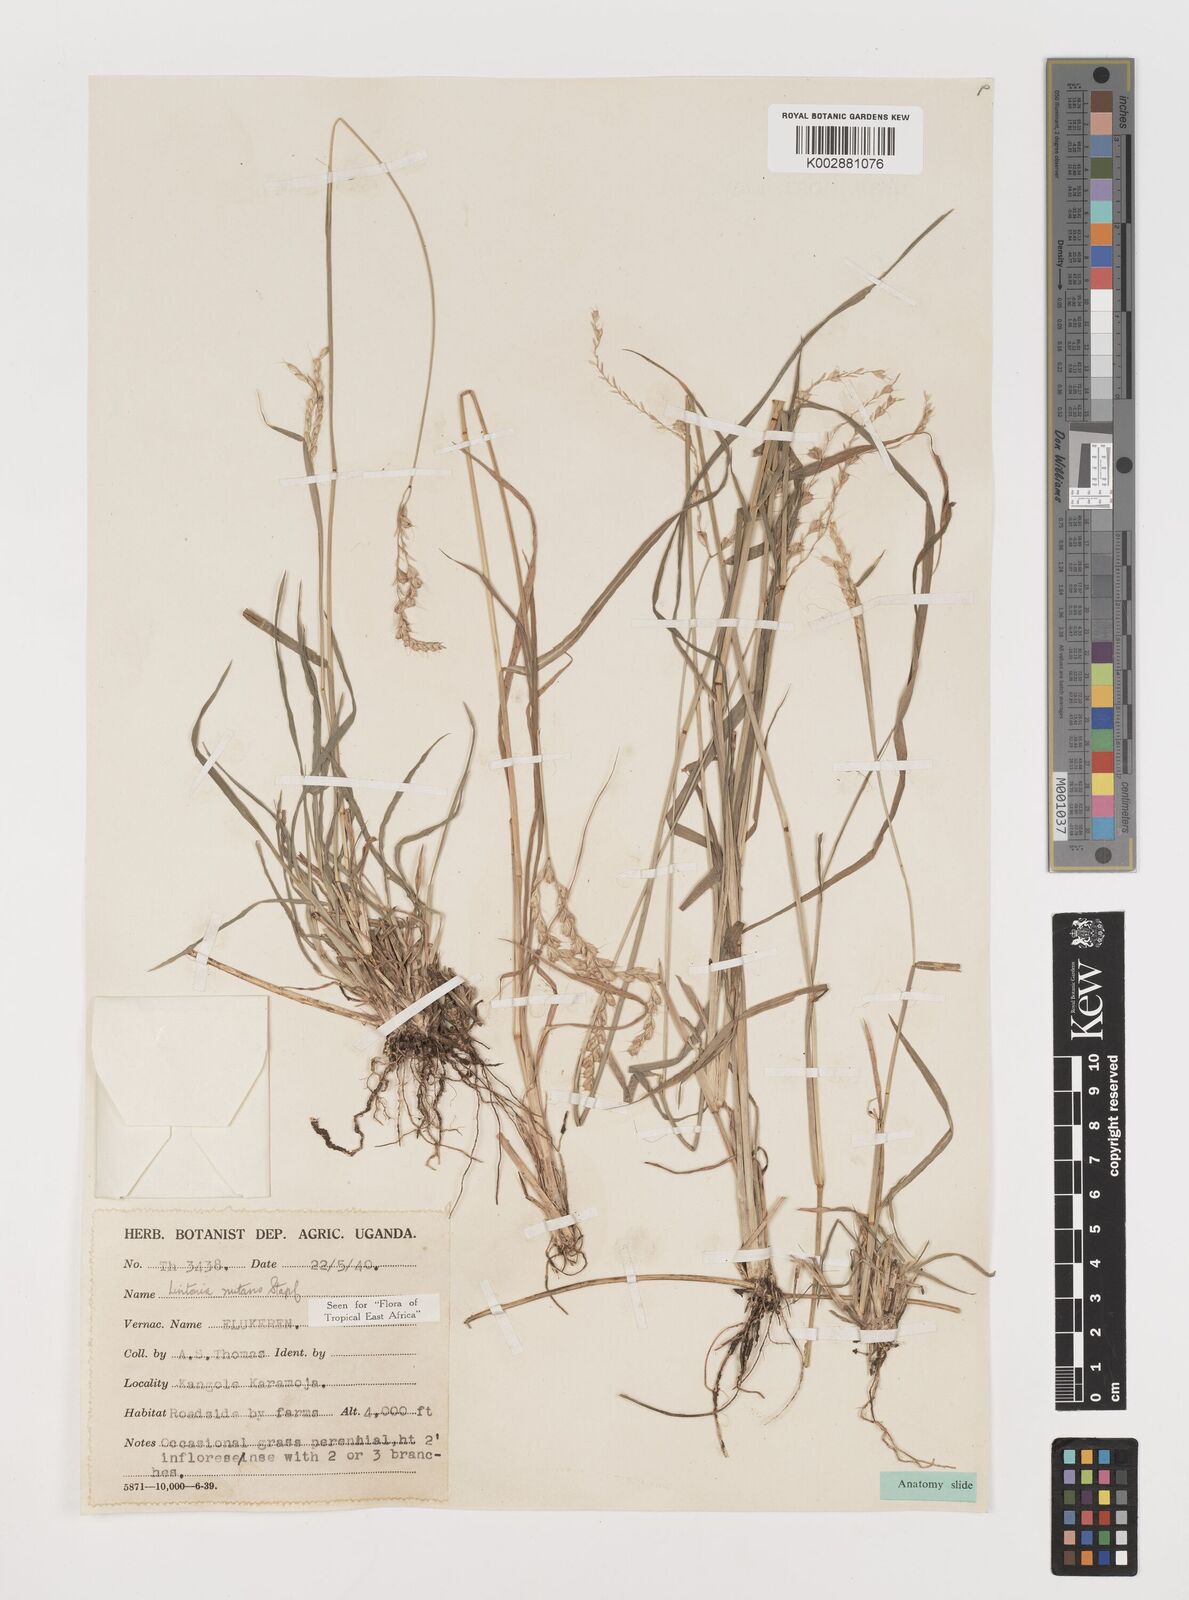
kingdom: Plantae
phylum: Tracheophyta
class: Liliopsida
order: Poales
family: Poaceae
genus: Chloris
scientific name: Chloris nutans
